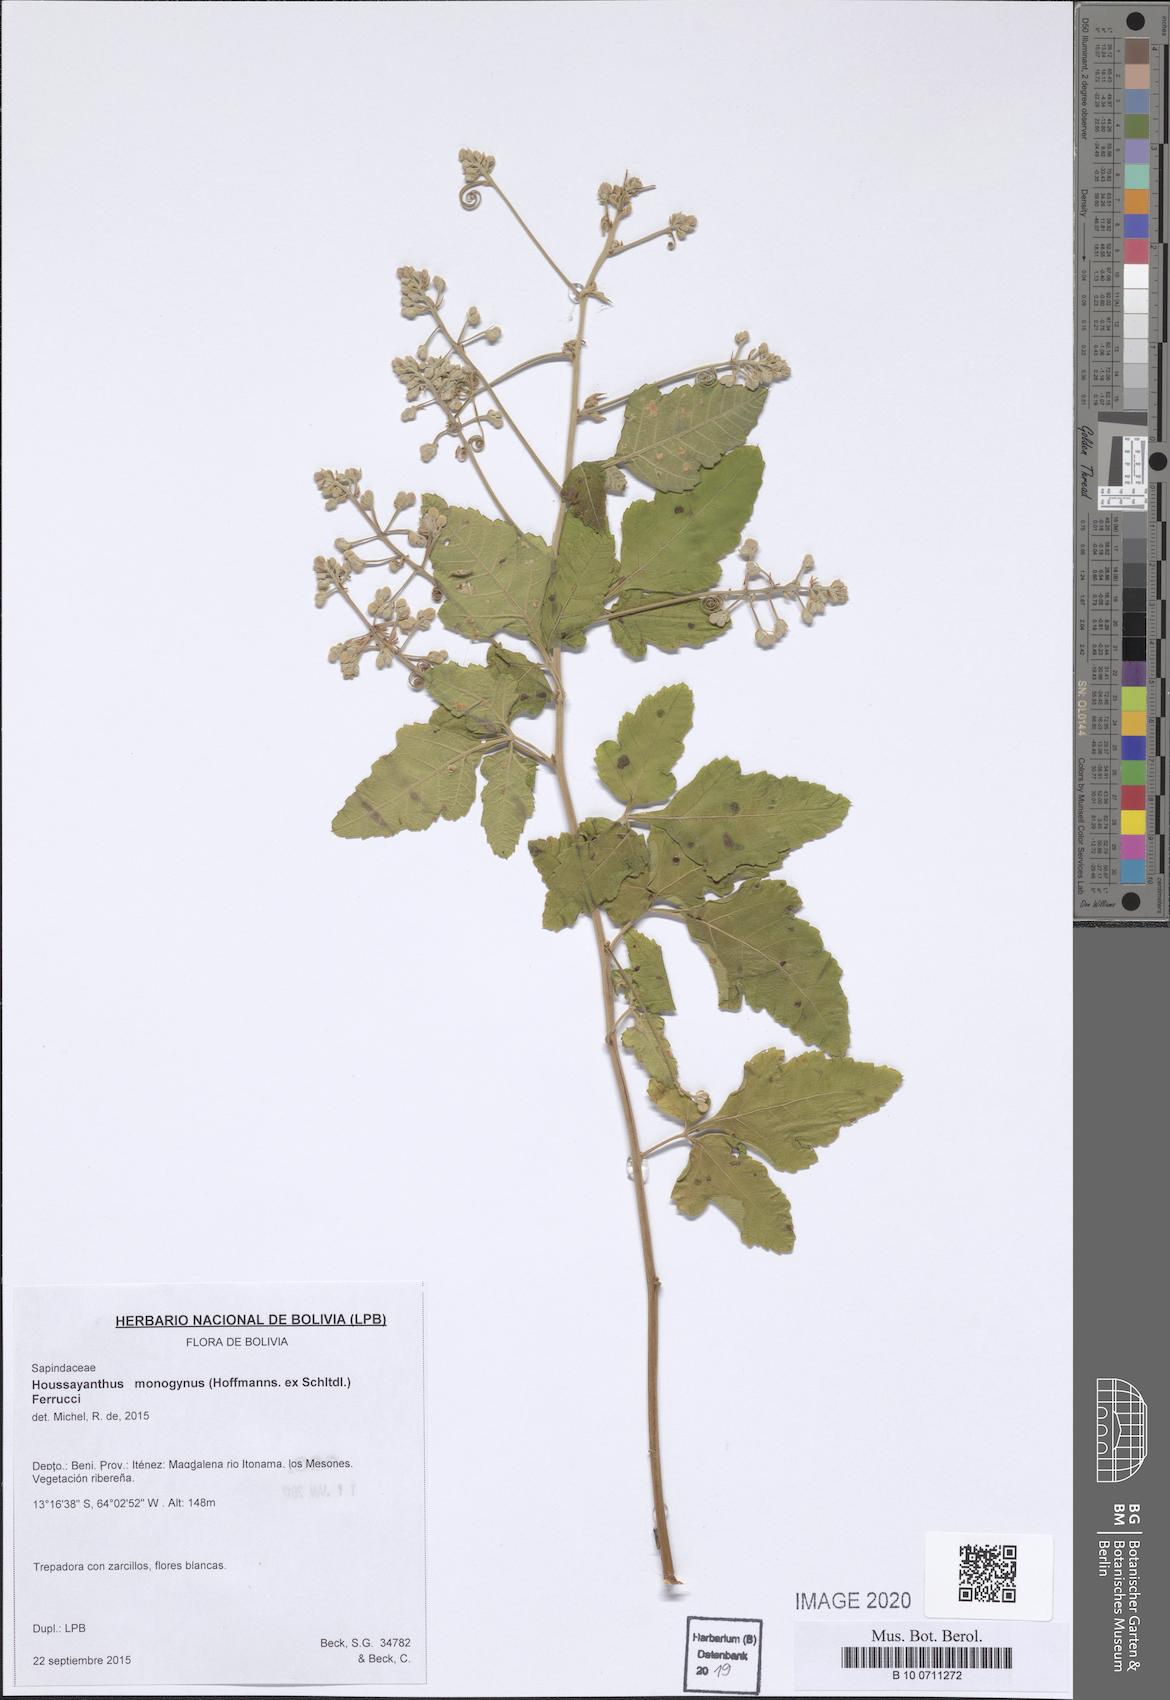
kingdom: Plantae
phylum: Tracheophyta
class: Magnoliopsida
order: Sapindales
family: Sapindaceae
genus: Serjania
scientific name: Serjania monogyna
